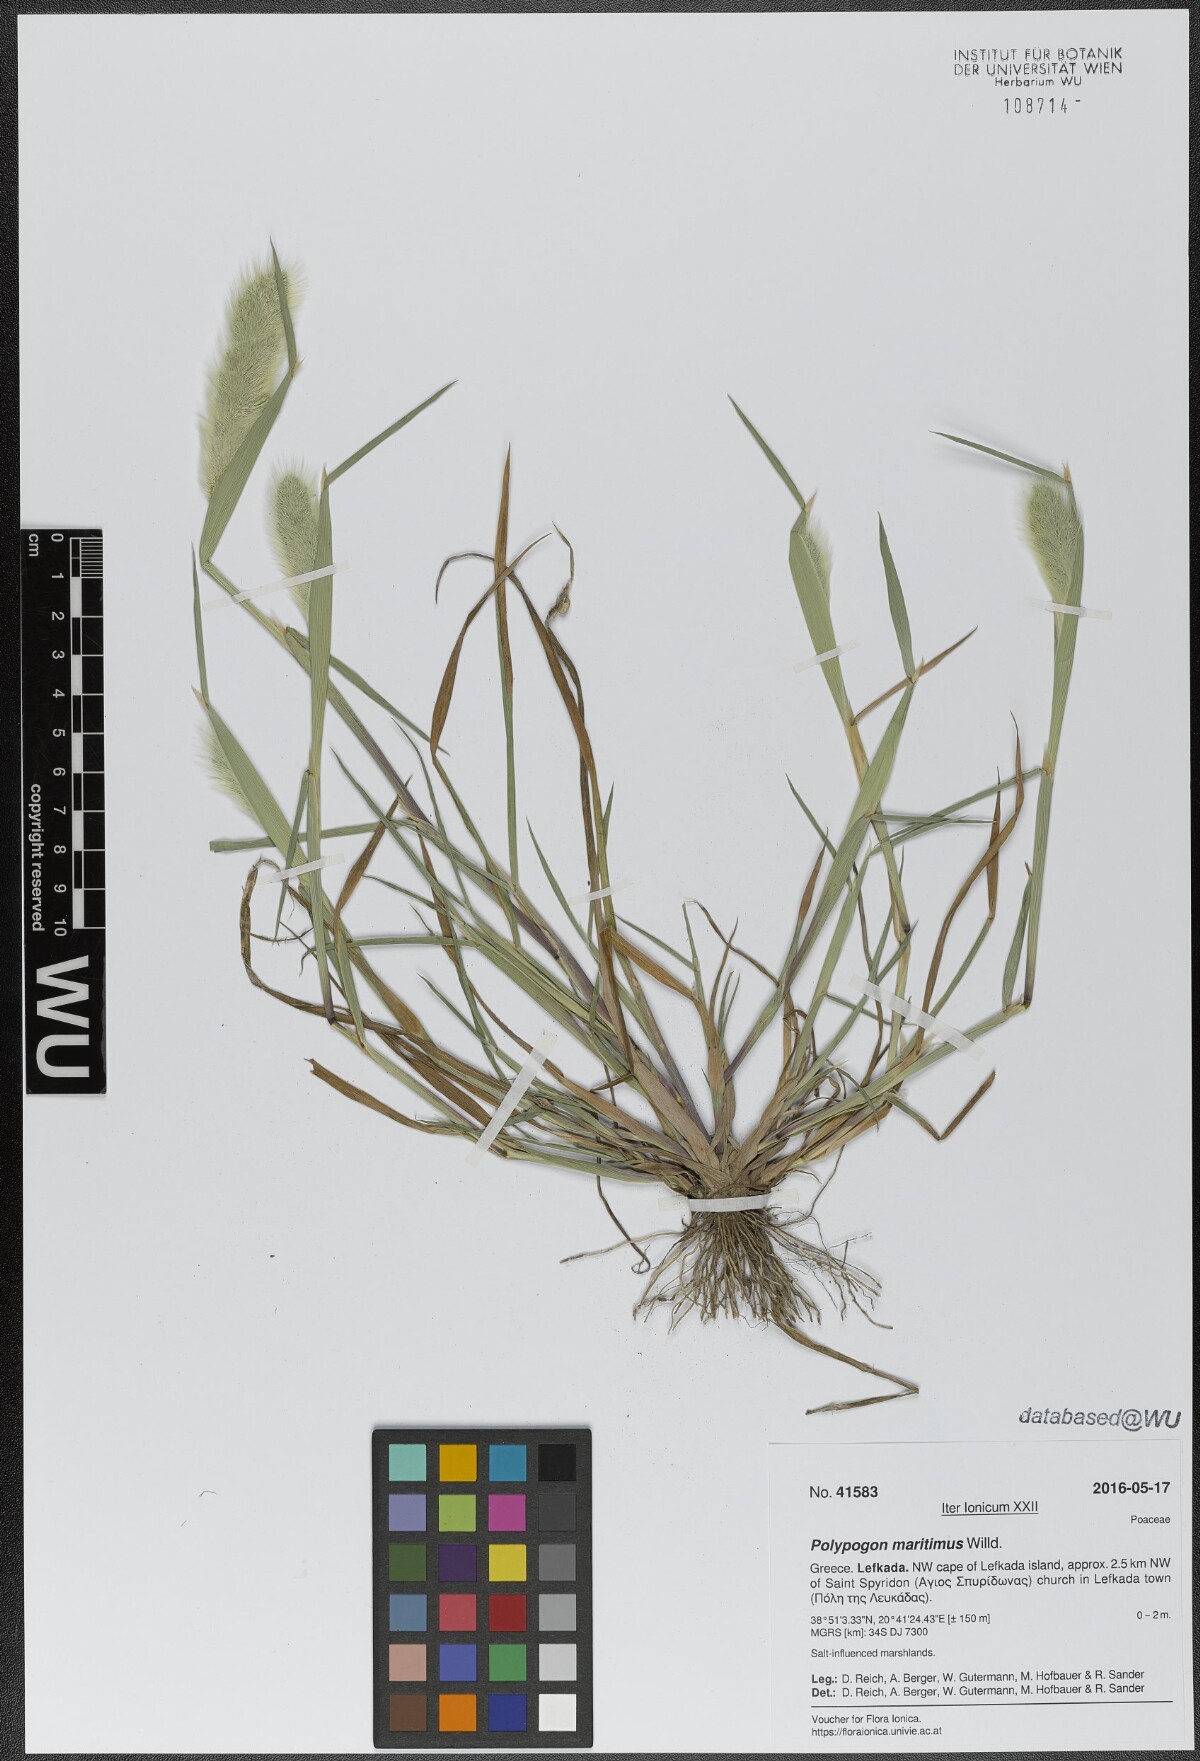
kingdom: Plantae
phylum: Tracheophyta
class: Liliopsida
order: Poales
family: Poaceae
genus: Polypogon
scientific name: Polypogon maritimus
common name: Mediterranean rabbitsfoot grass
